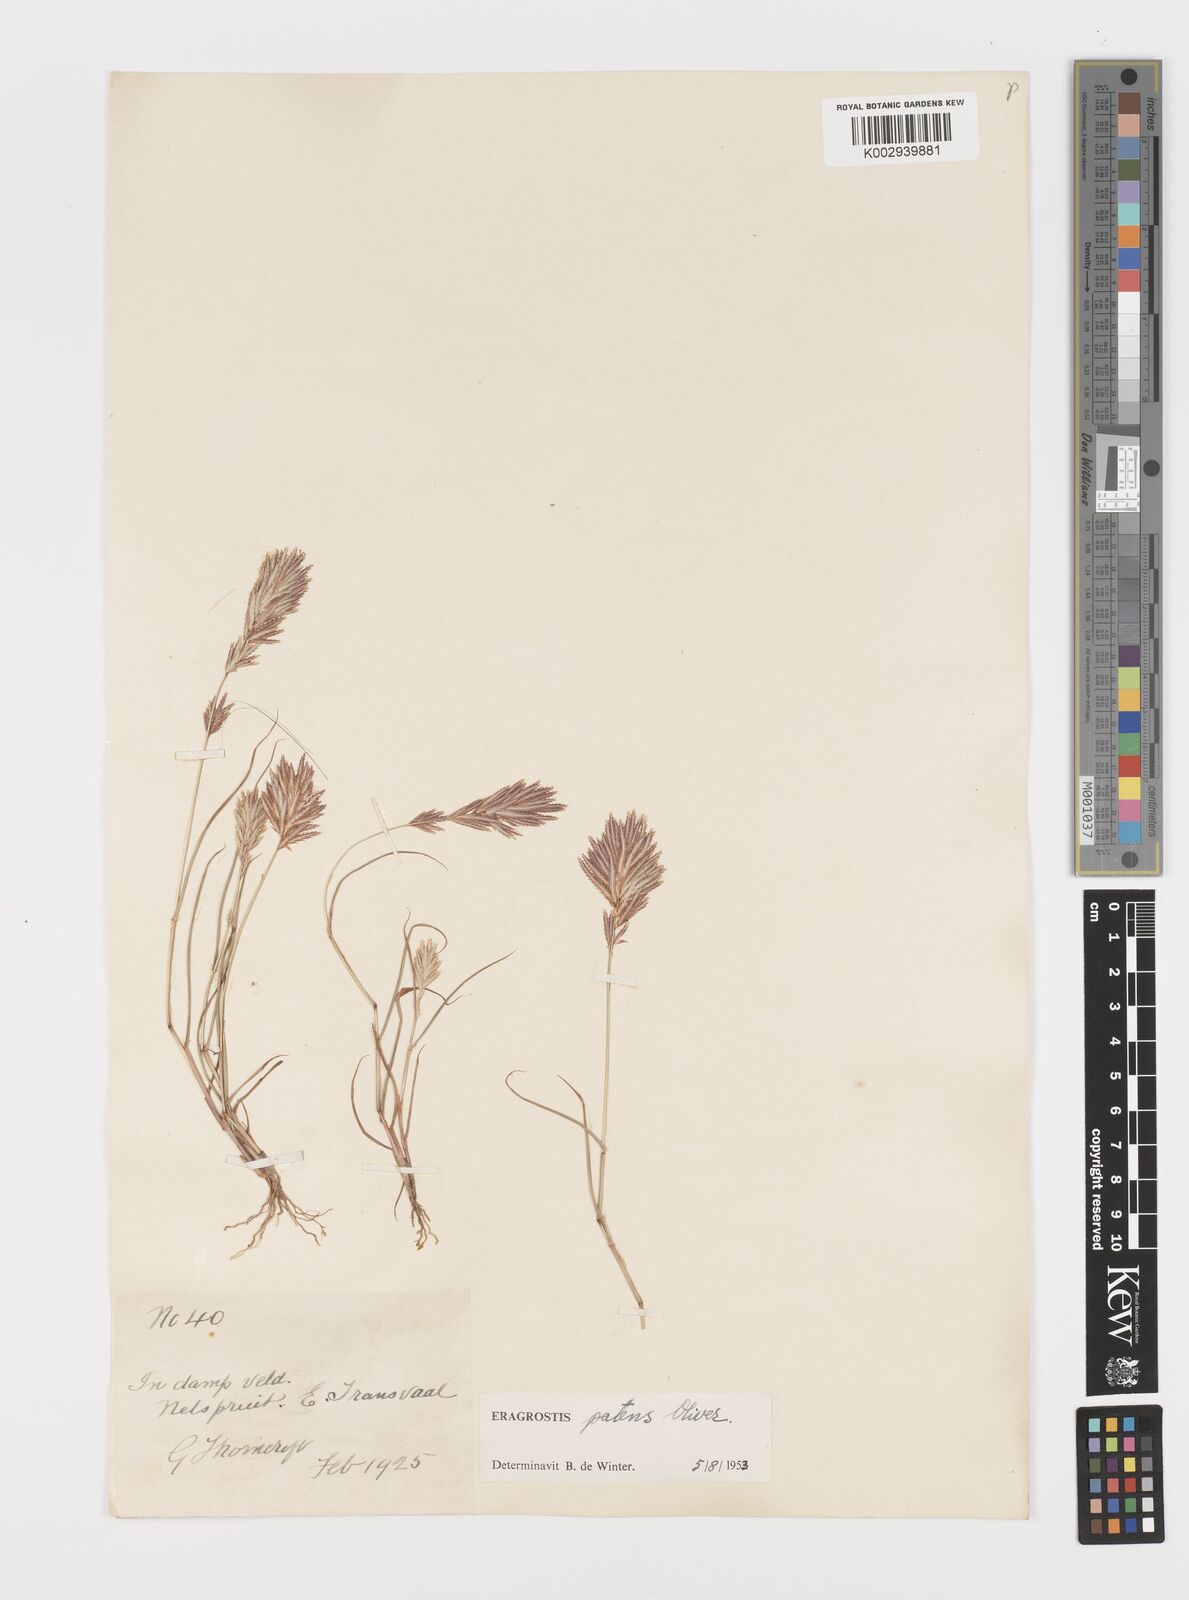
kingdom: Plantae
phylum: Tracheophyta
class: Liliopsida
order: Poales
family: Poaceae
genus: Eragrostis
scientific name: Eragrostis patens
